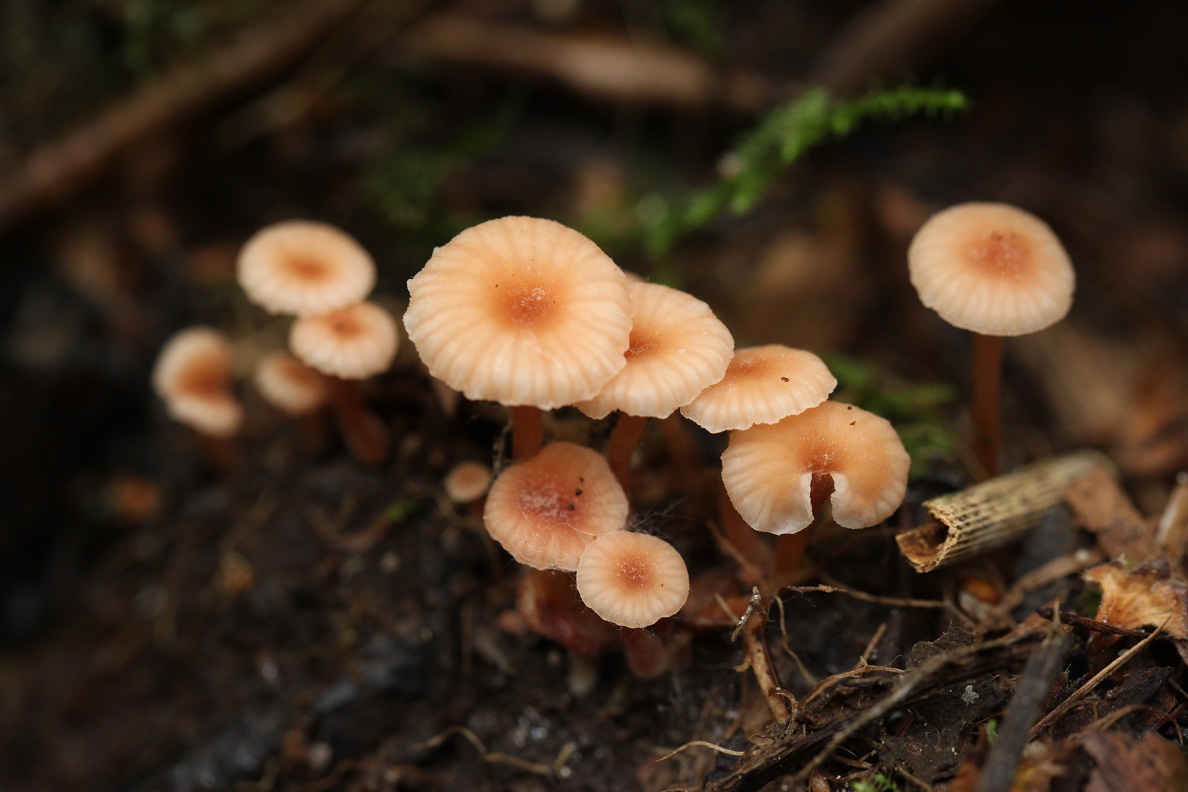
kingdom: Fungi
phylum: Basidiomycota
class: Agaricomycetes
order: Agaricales
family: Hydnangiaceae
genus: Laccaria
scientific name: Laccaria tortilis
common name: krybende ametysthat
